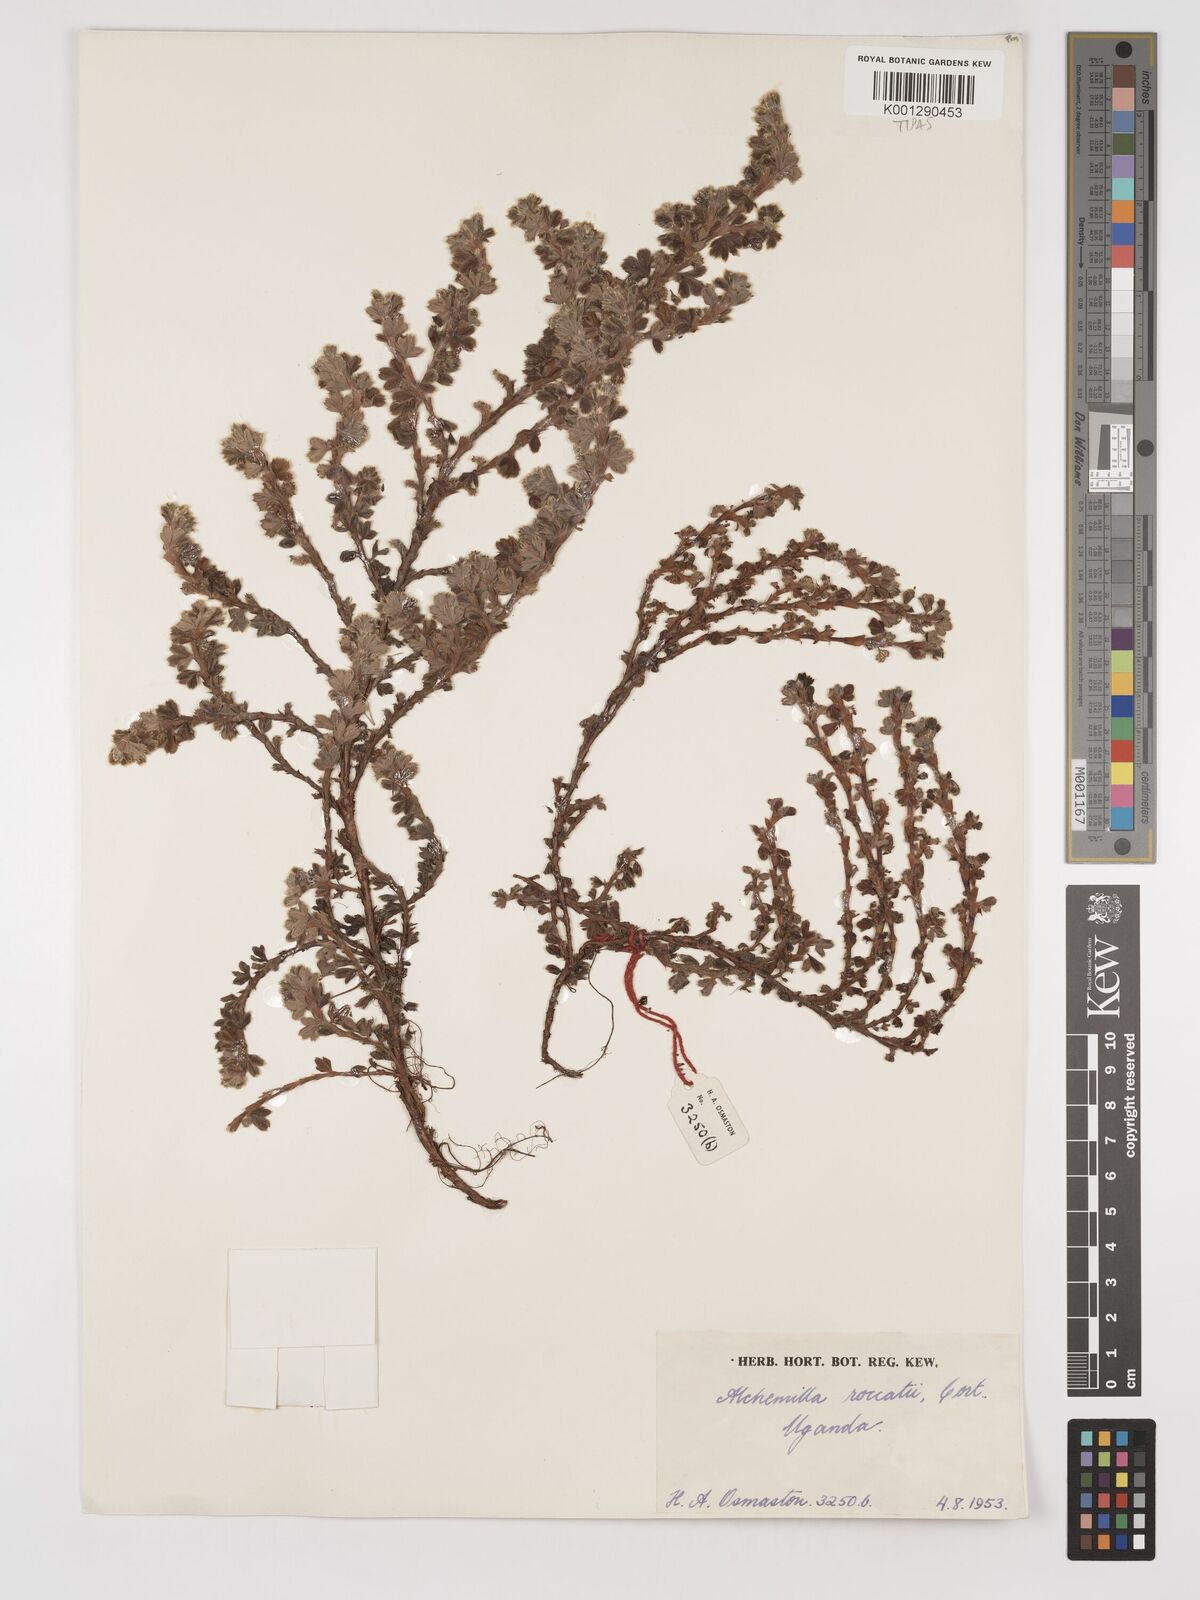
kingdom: Plantae
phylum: Tracheophyta
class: Magnoliopsida
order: Rosales
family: Rosaceae
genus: Alchemilla
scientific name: Alchemilla roccatii
